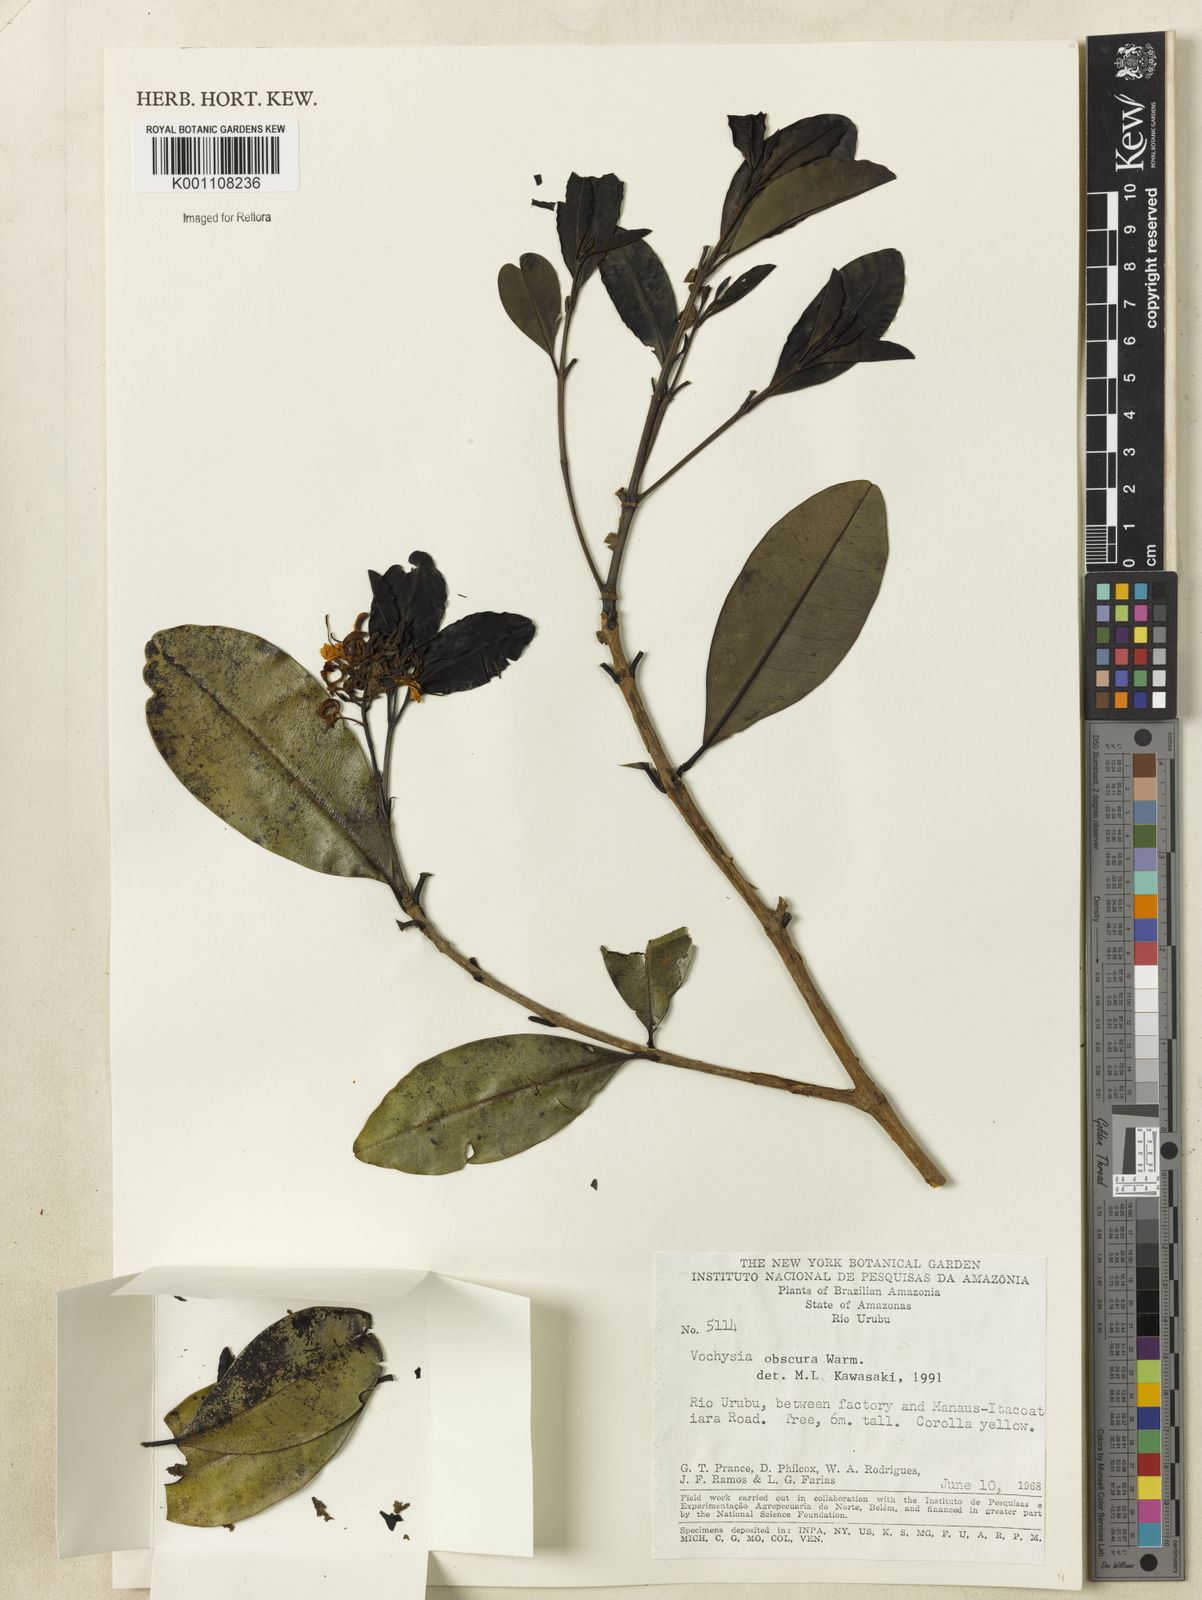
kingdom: Plantae
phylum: Tracheophyta
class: Magnoliopsida
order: Myrtales
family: Vochysiaceae
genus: Vochysia
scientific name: Vochysia obscura
